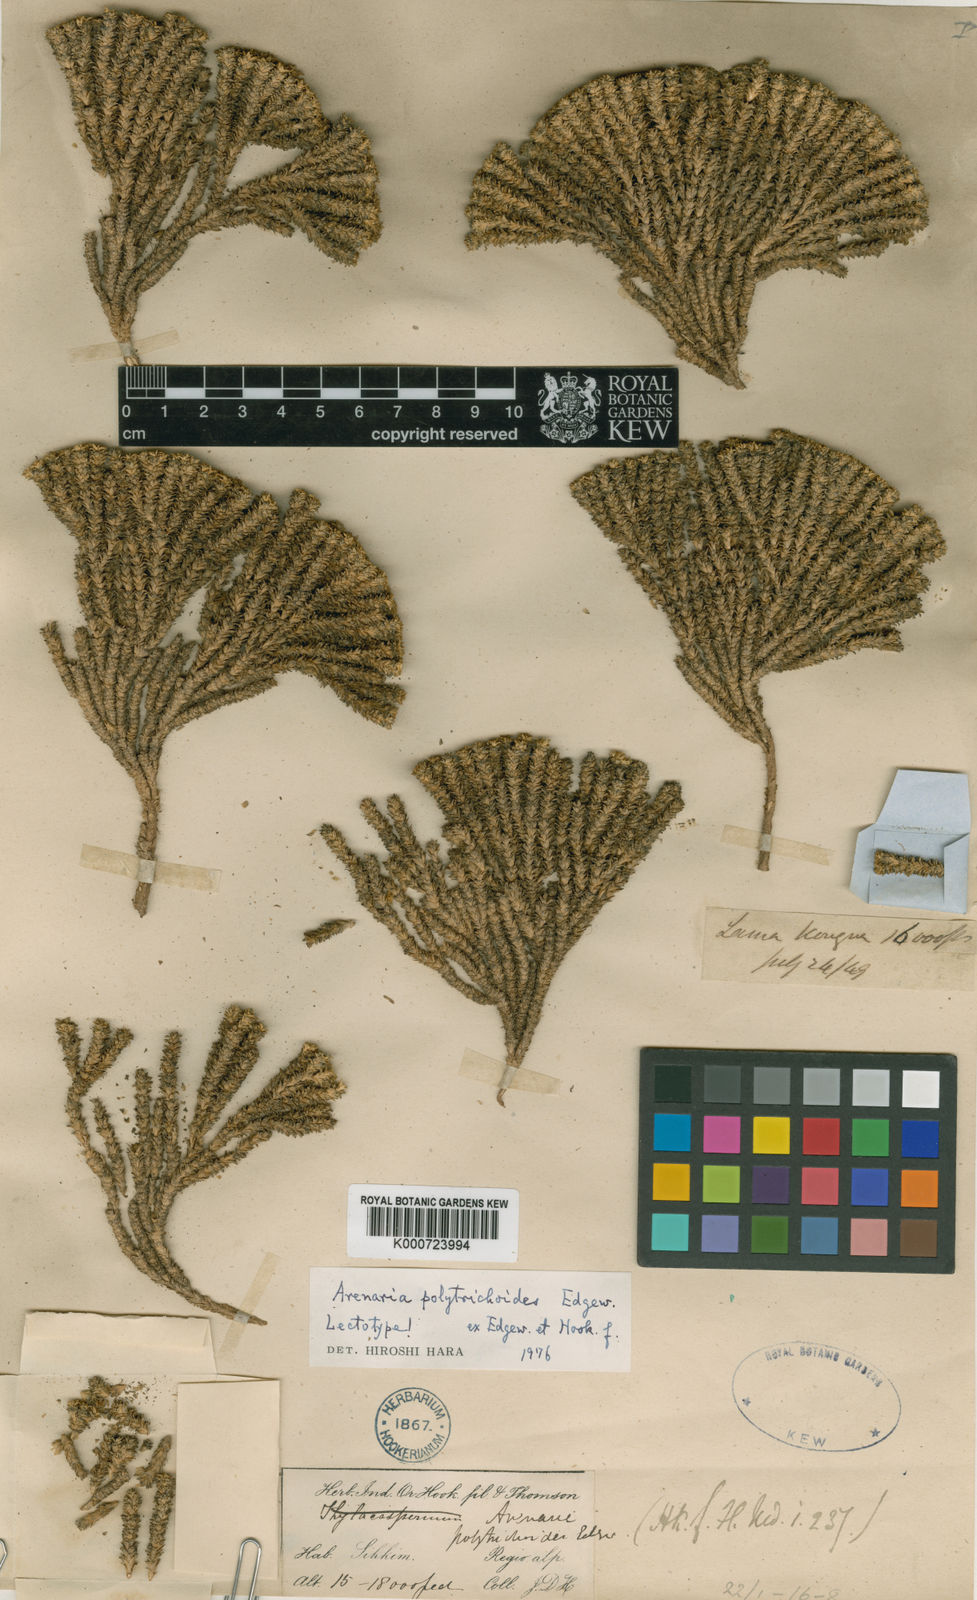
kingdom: Plantae
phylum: Tracheophyta
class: Magnoliopsida
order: Caryophyllales
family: Caryophyllaceae
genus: Arenaria
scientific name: Arenaria polytrichoides
